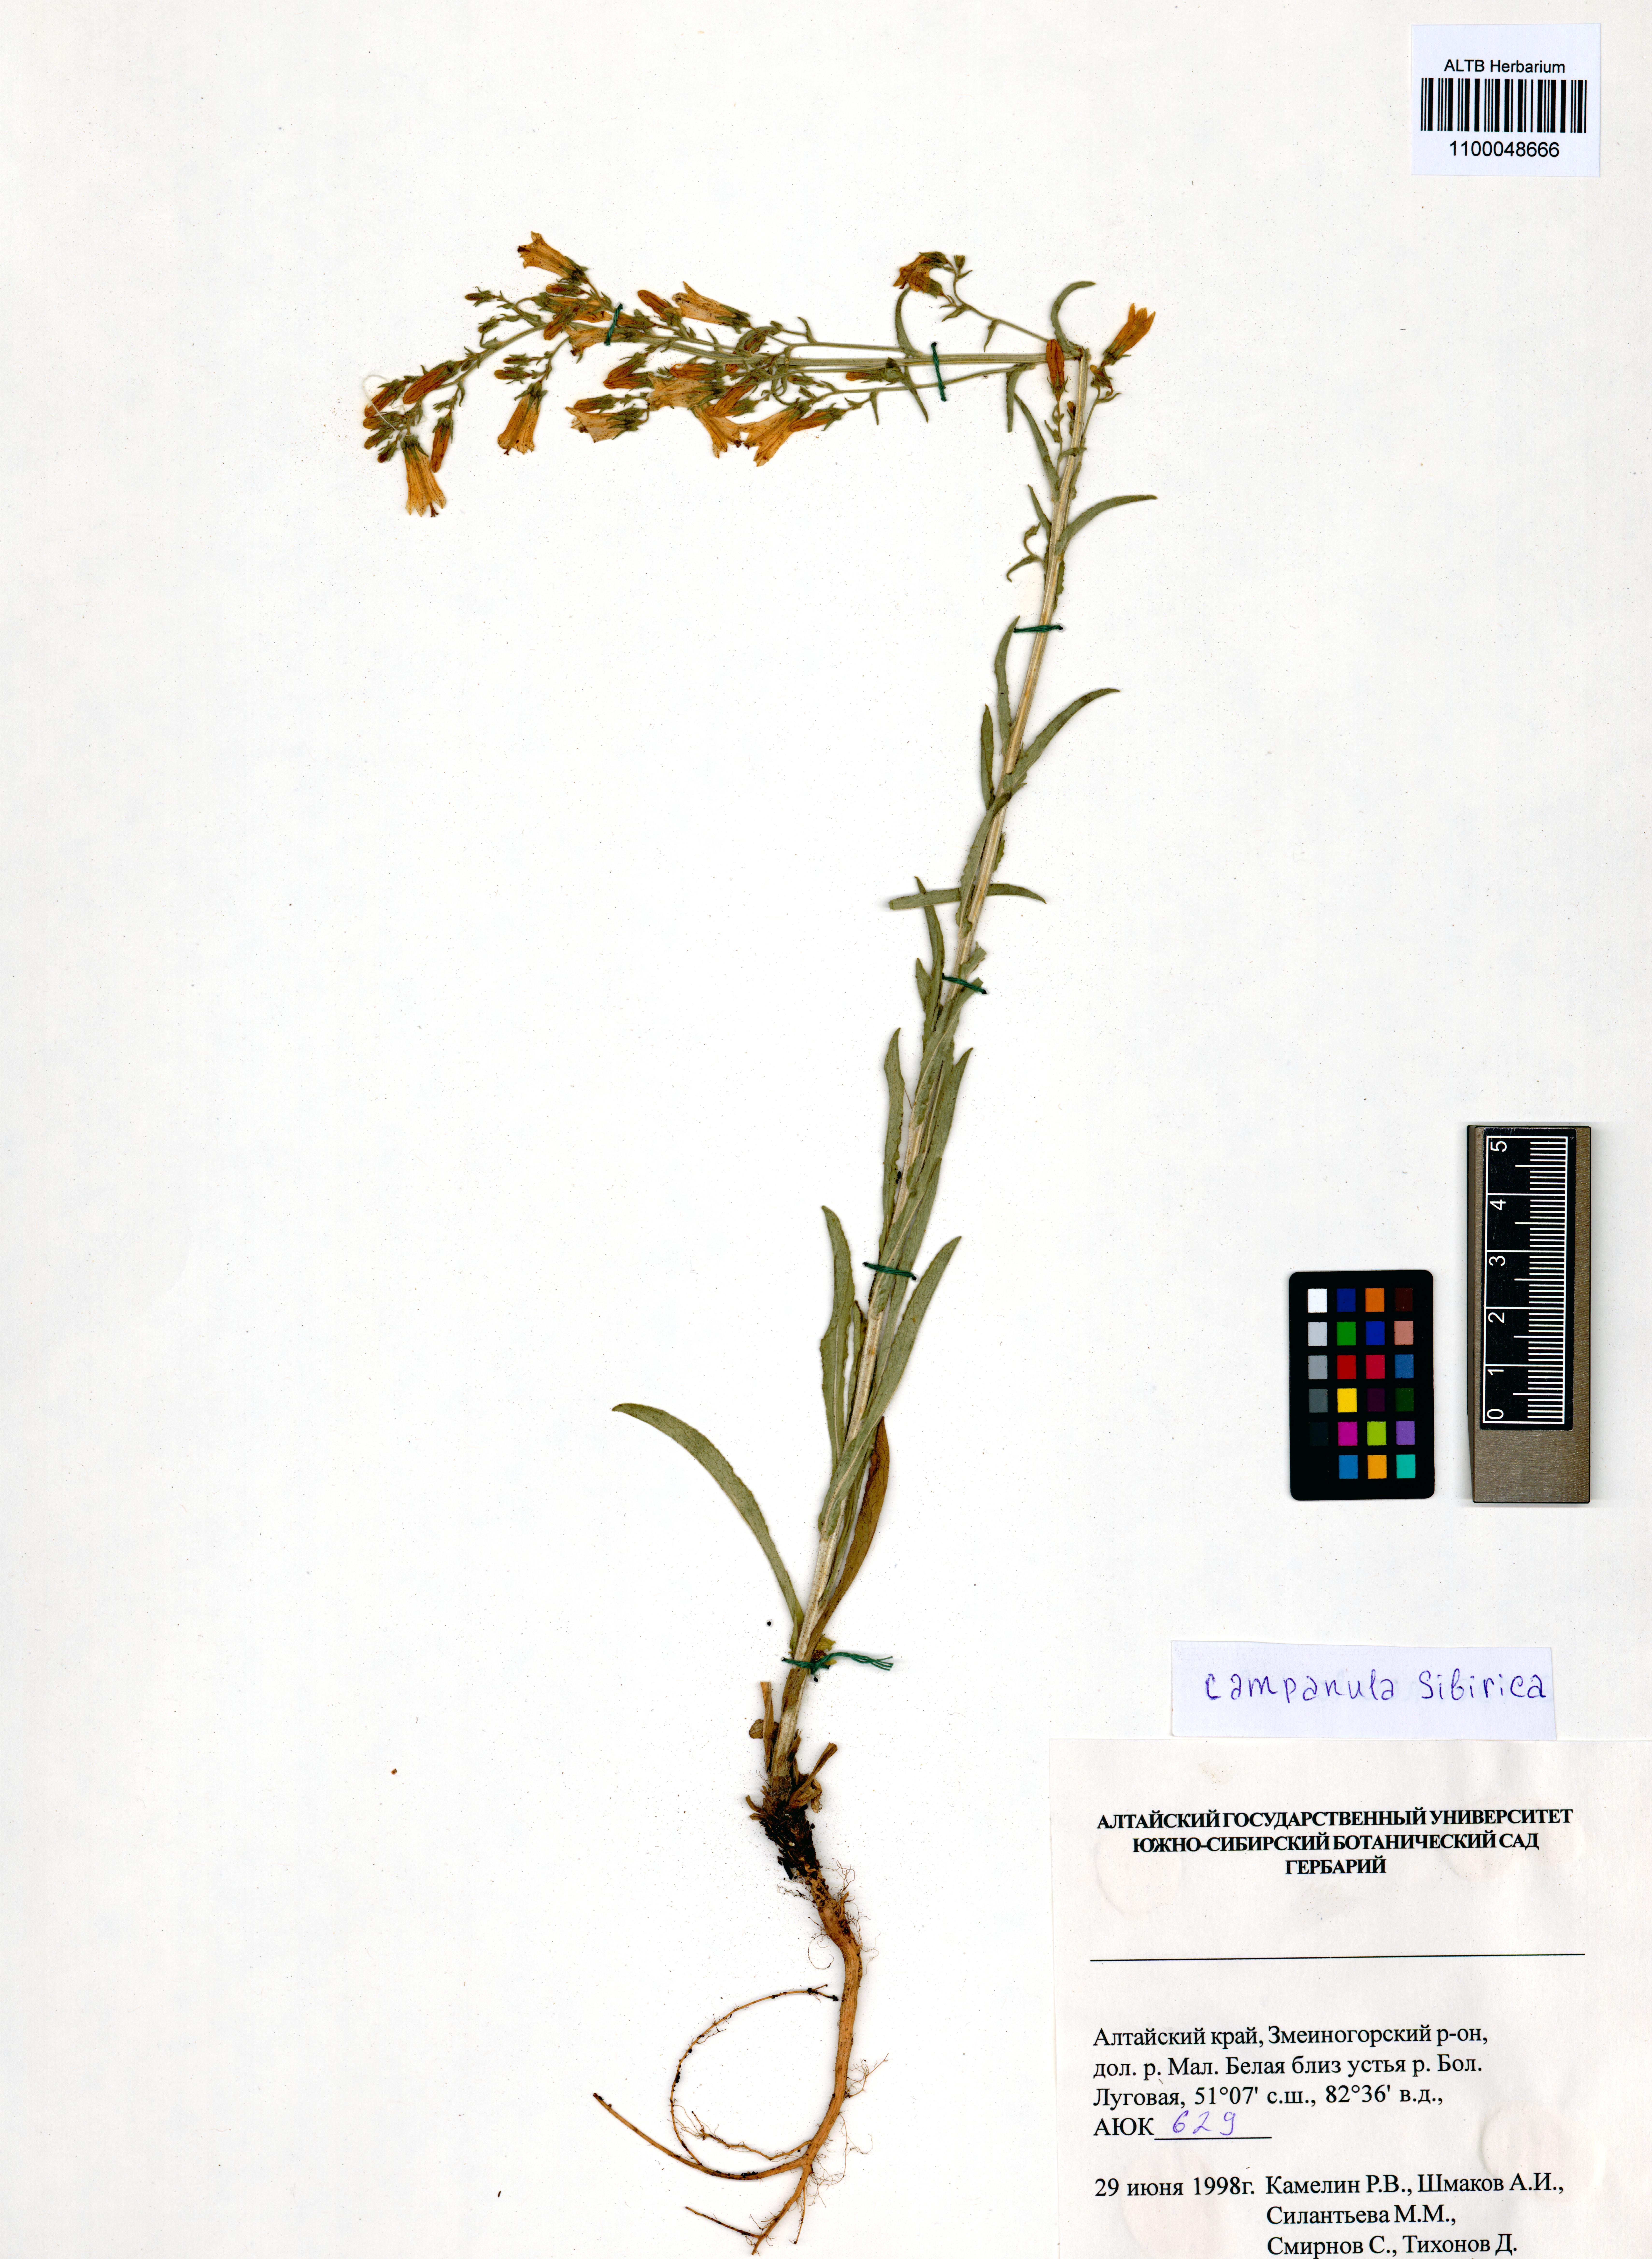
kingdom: Plantae
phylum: Tracheophyta
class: Magnoliopsida
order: Asterales
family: Campanulaceae
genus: Campanula
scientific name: Campanula sibirica
